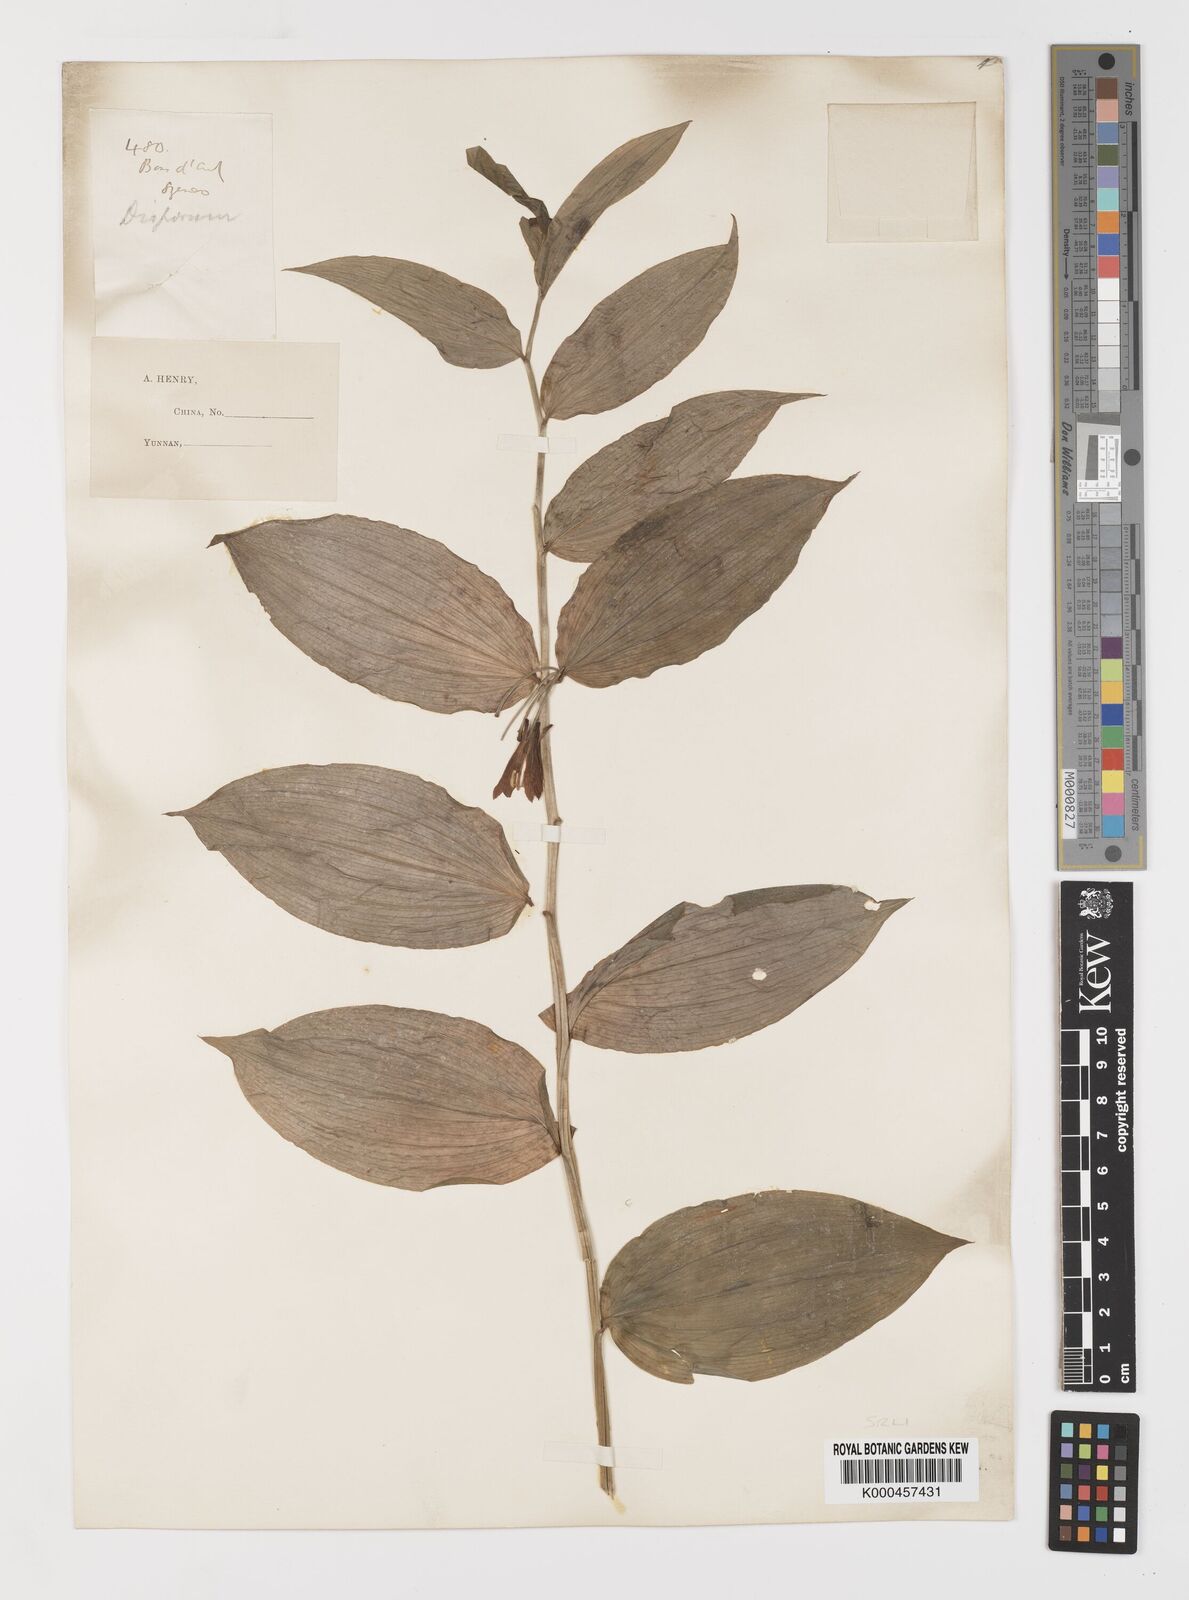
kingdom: Plantae
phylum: Tracheophyta
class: Liliopsida
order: Liliales
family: Colchicaceae
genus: Disporum
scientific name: Disporum calcaratum
